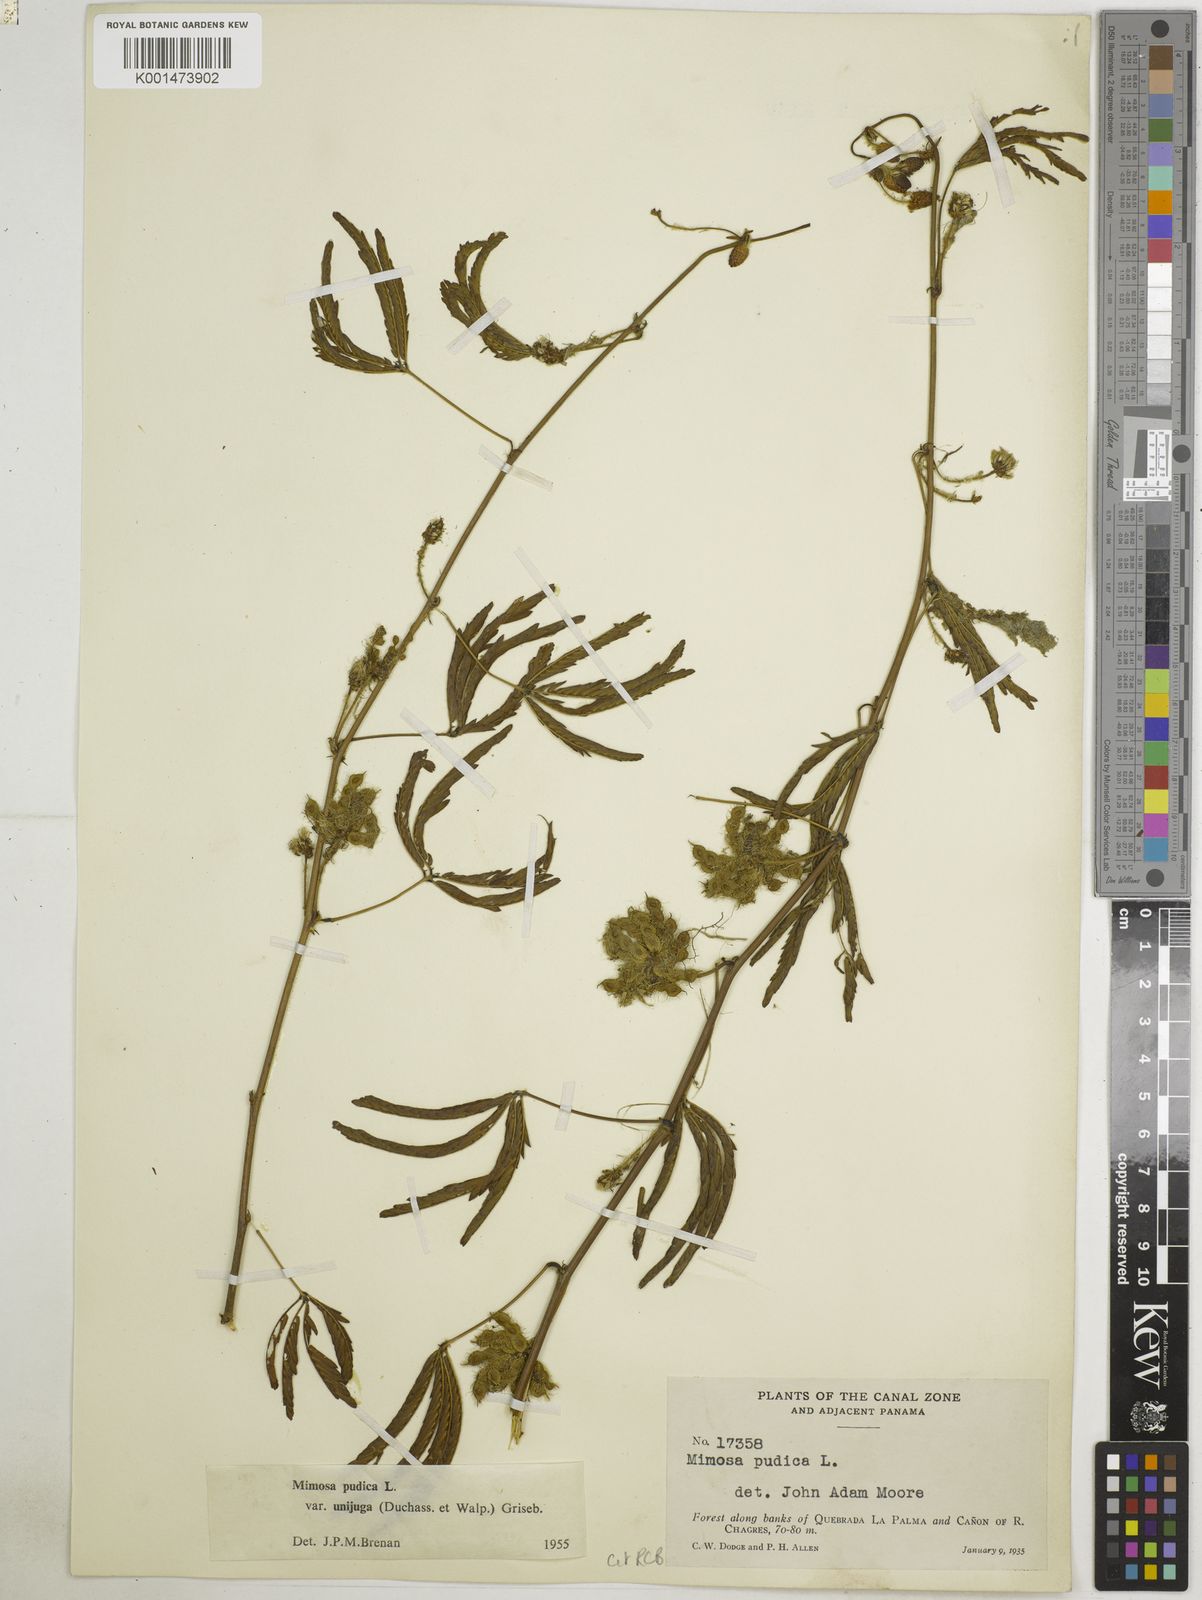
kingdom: Plantae
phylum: Tracheophyta
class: Magnoliopsida
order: Fabales
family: Fabaceae
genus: Mimosa
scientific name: Mimosa pudica
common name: Sensitive plant
